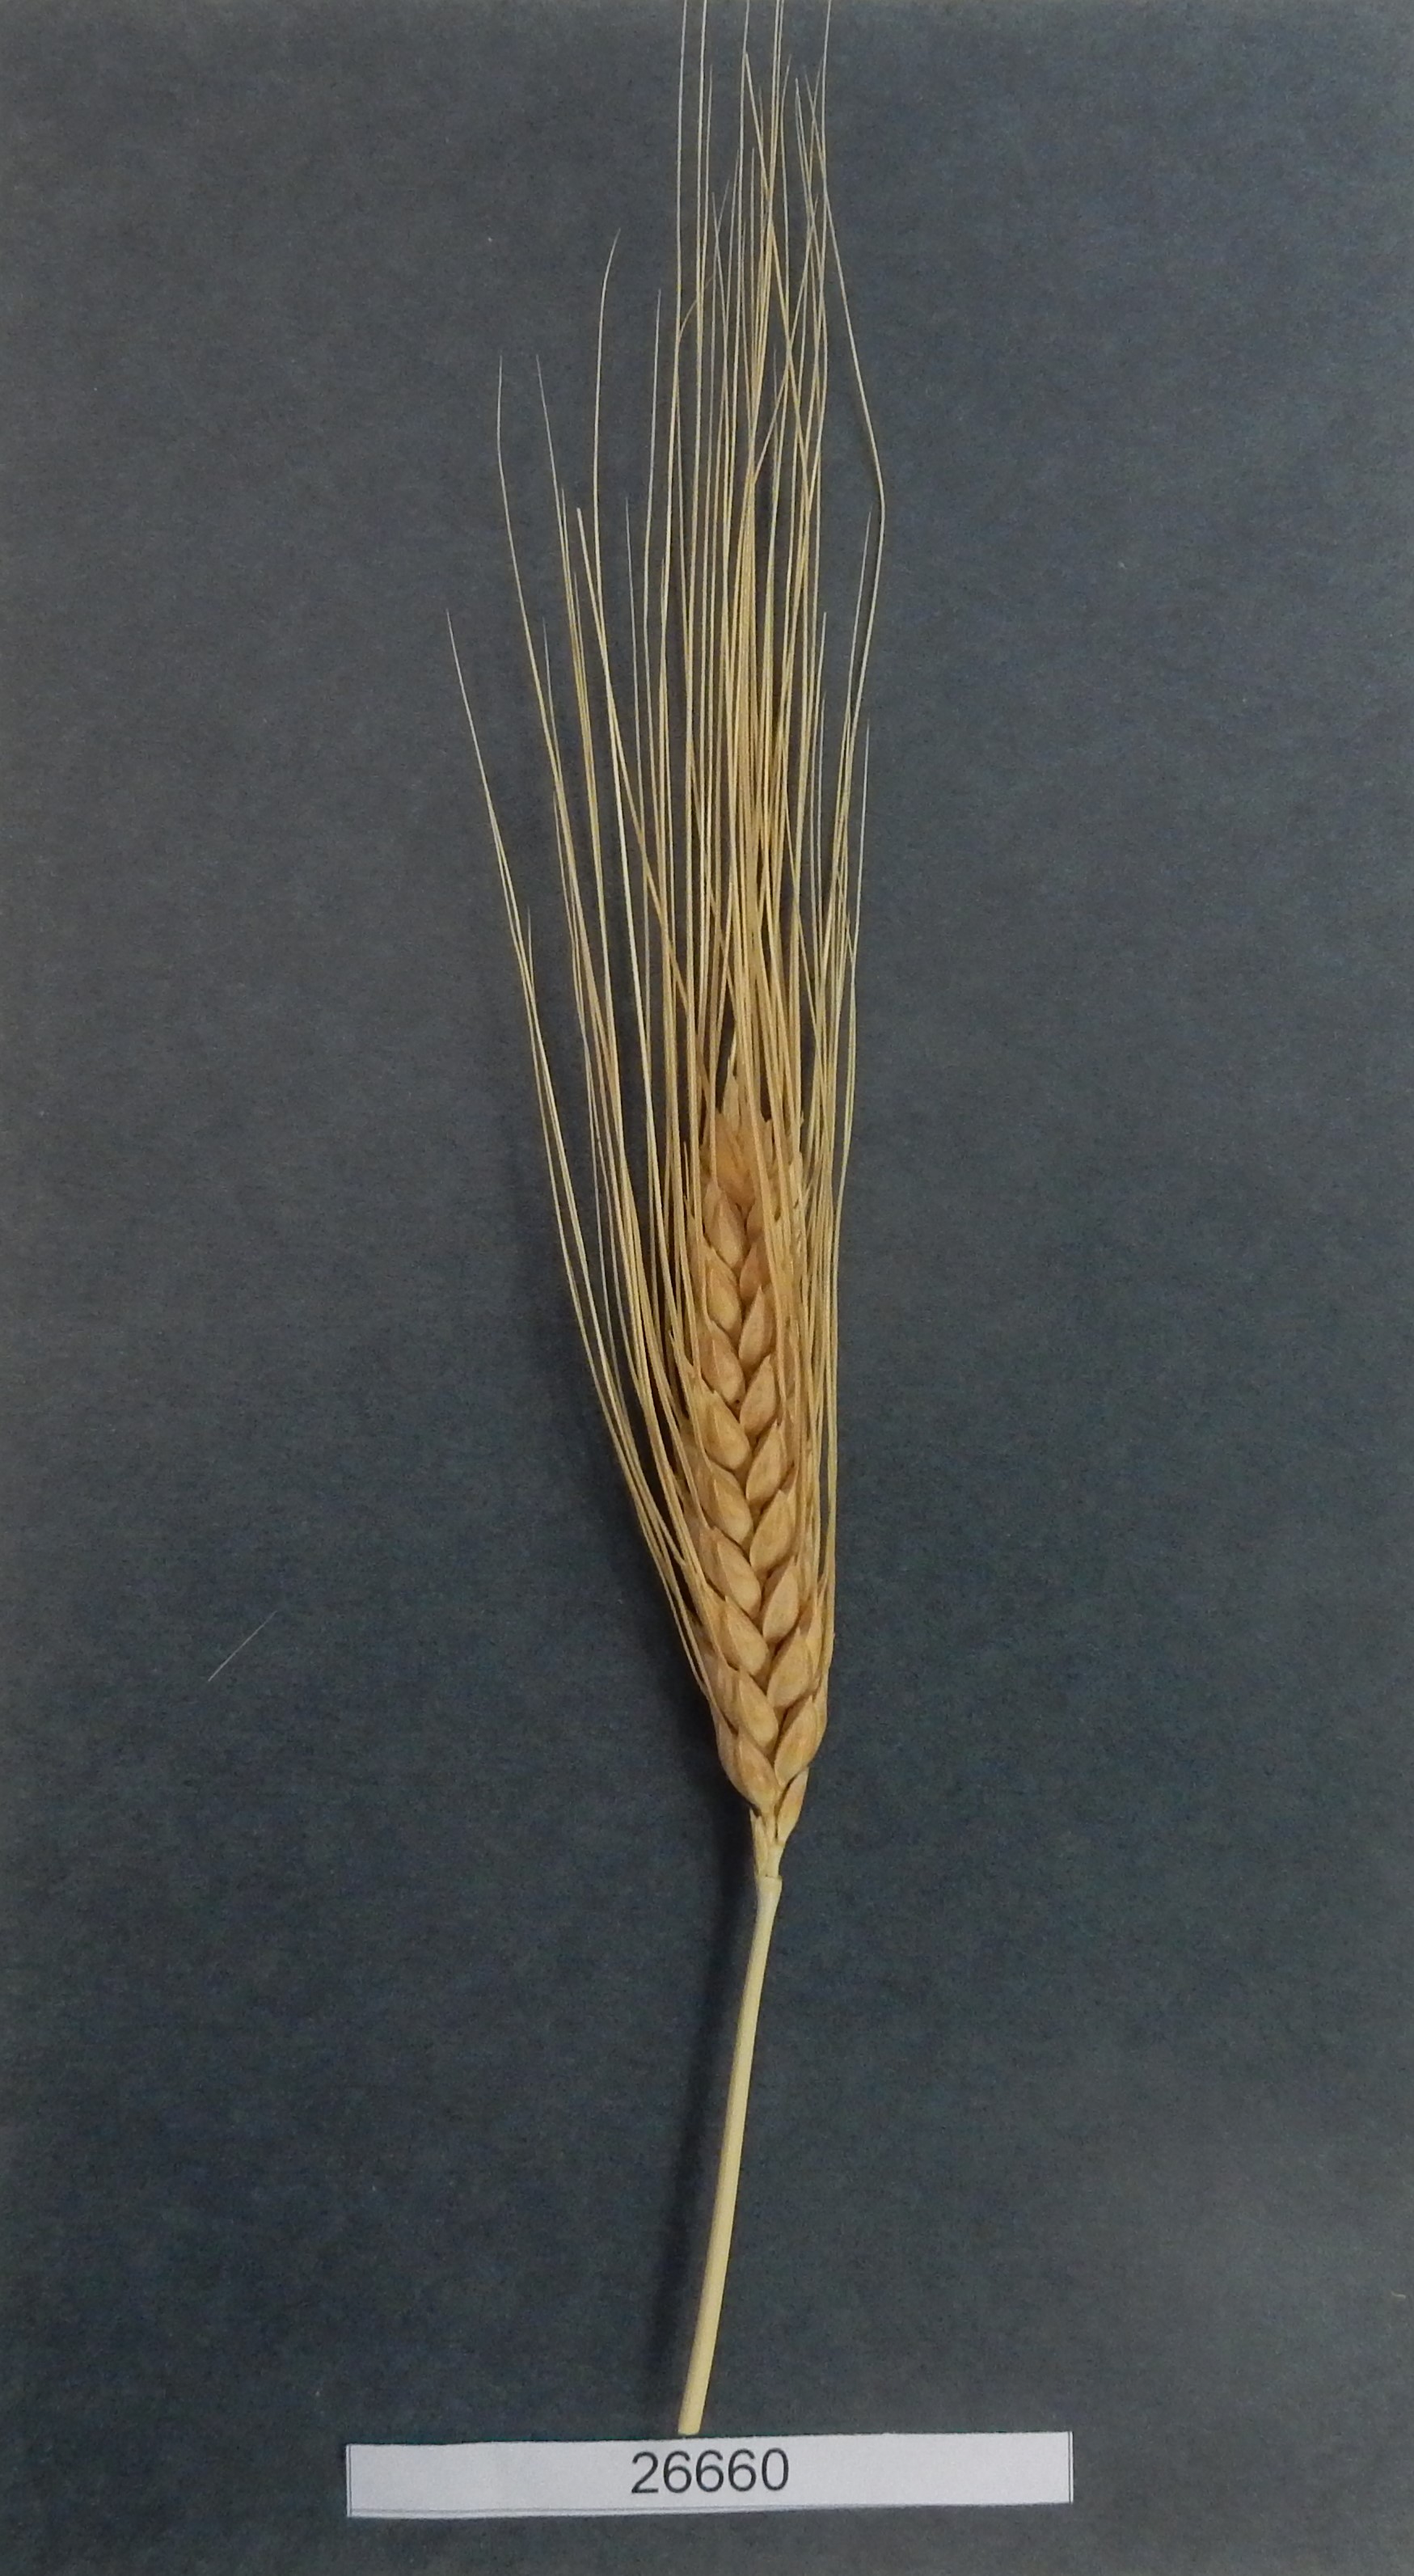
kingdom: Plantae
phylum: Tracheophyta
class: Liliopsida
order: Poales
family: Poaceae
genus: Triticum
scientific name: Triticum turgidum
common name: Wheat
